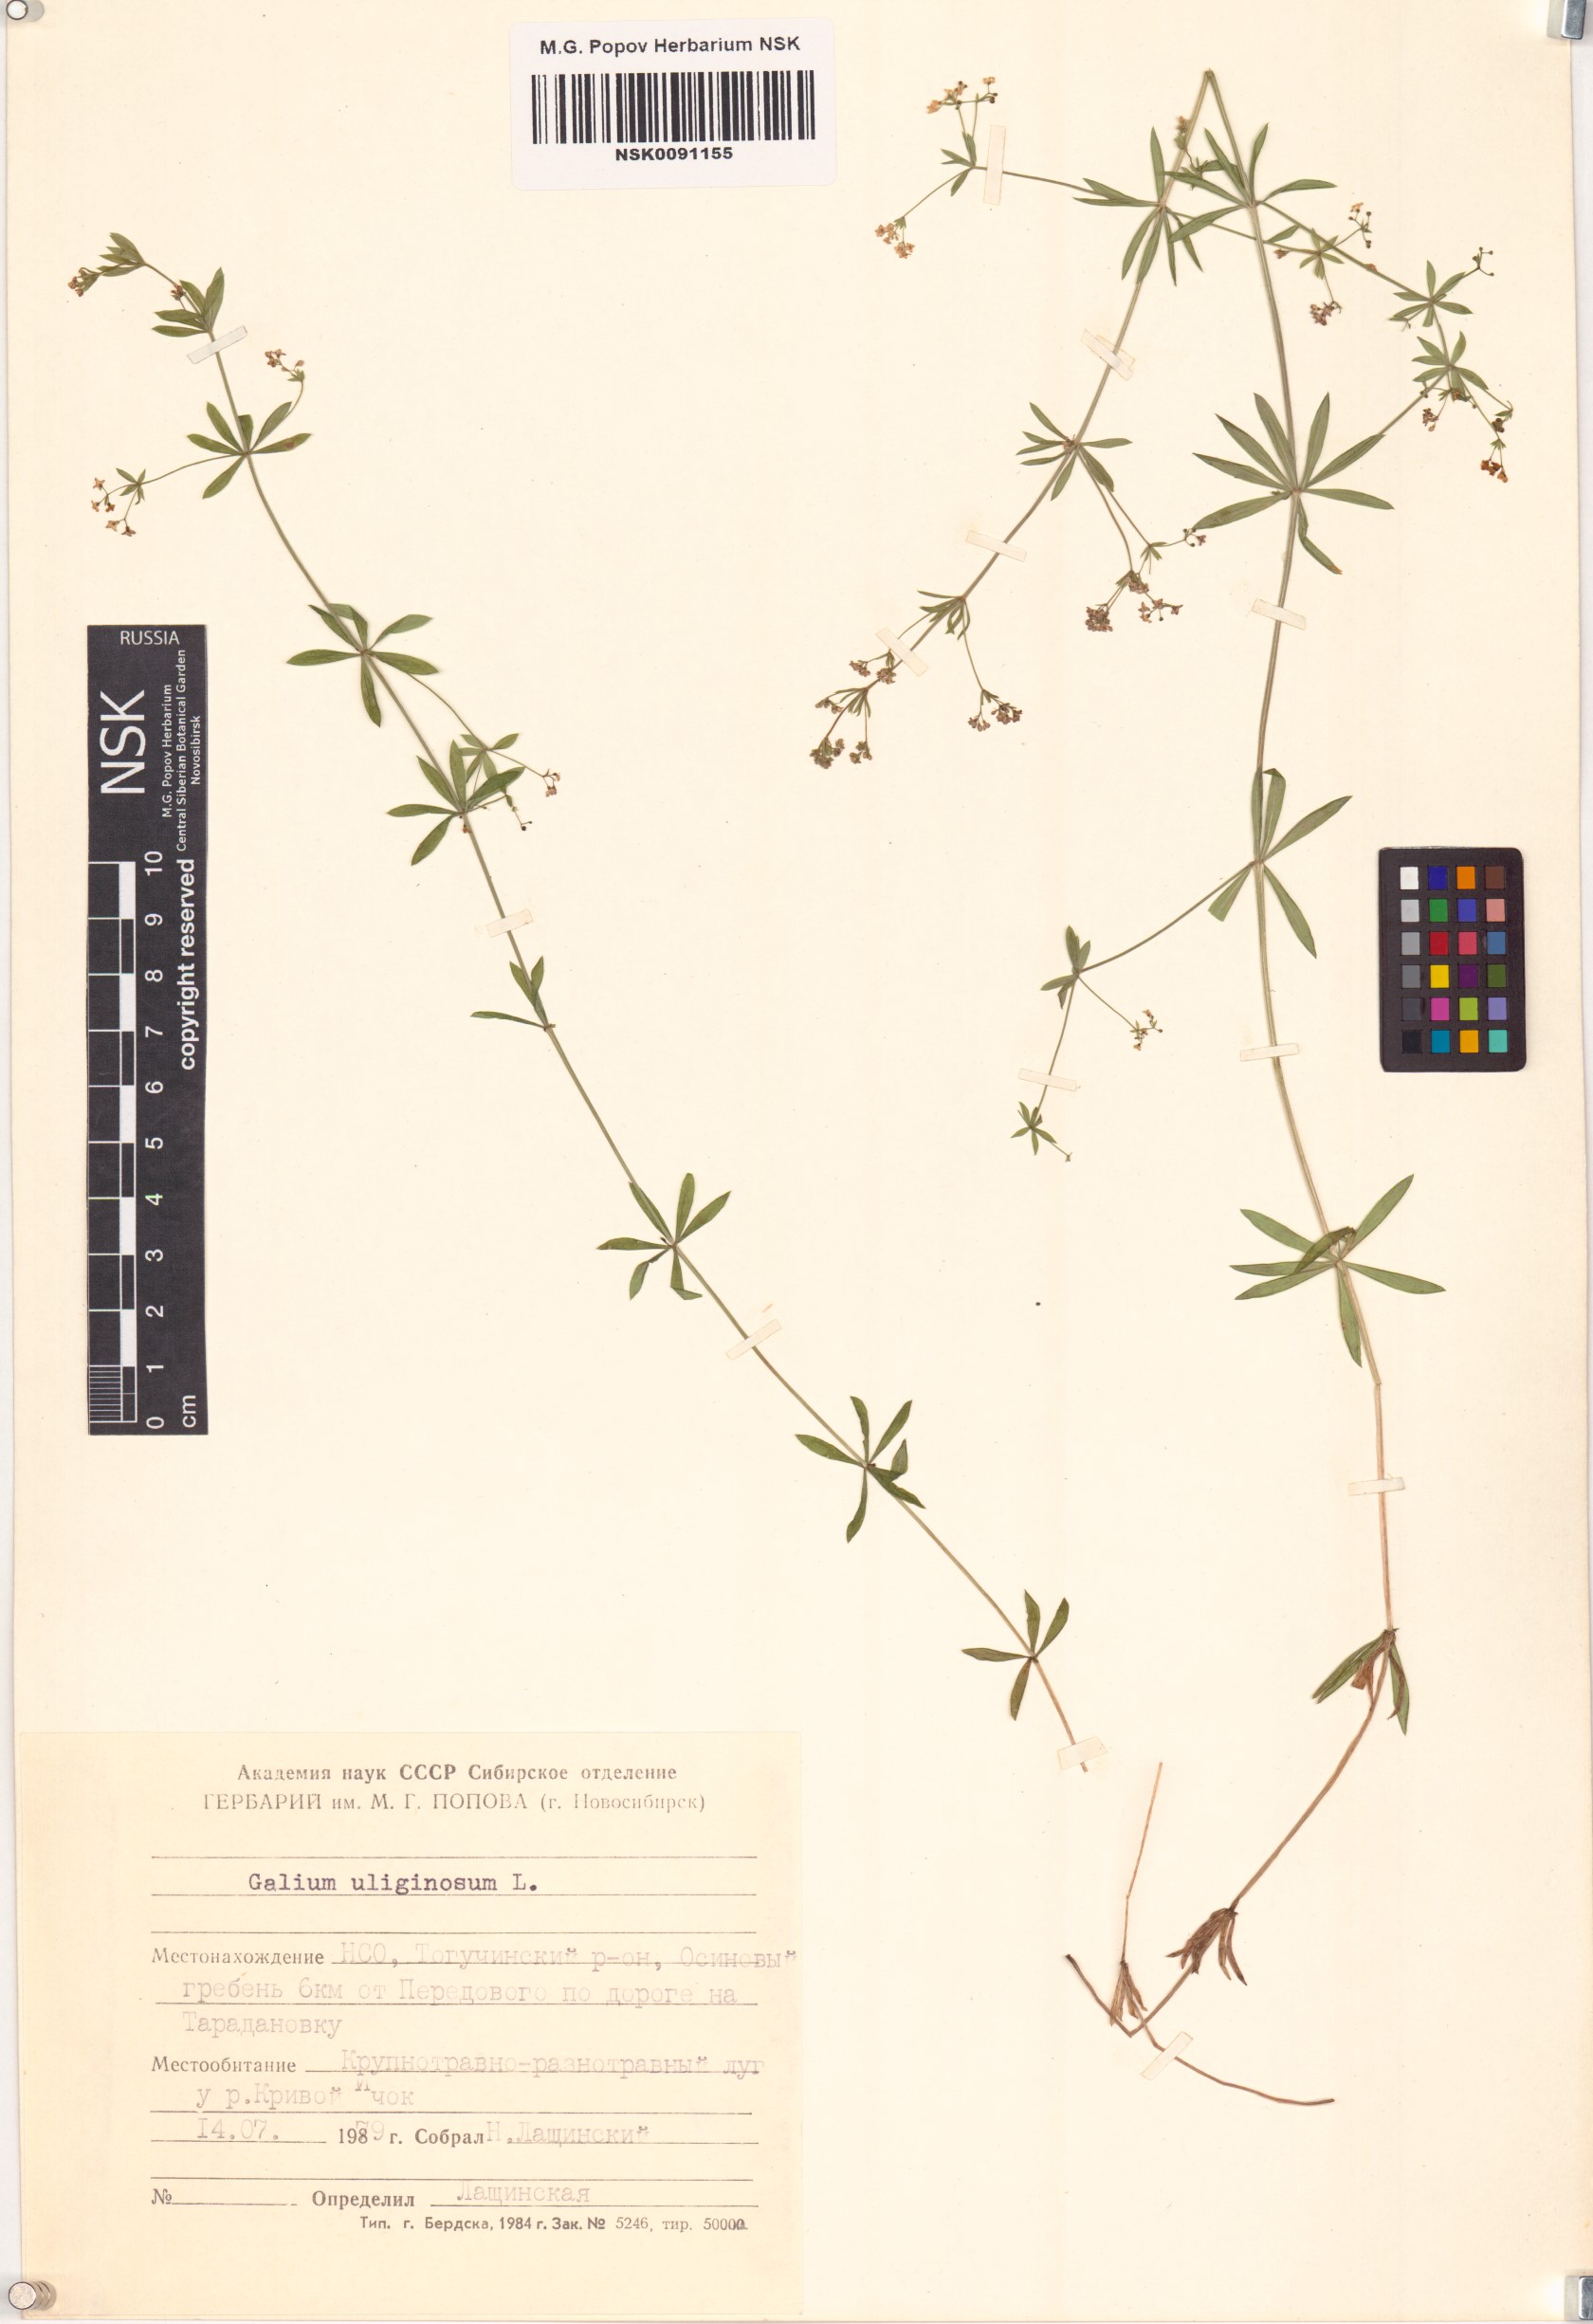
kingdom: Plantae
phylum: Tracheophyta
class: Magnoliopsida
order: Gentianales
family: Rubiaceae
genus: Galium
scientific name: Galium uliginosum
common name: Fen bedstraw
